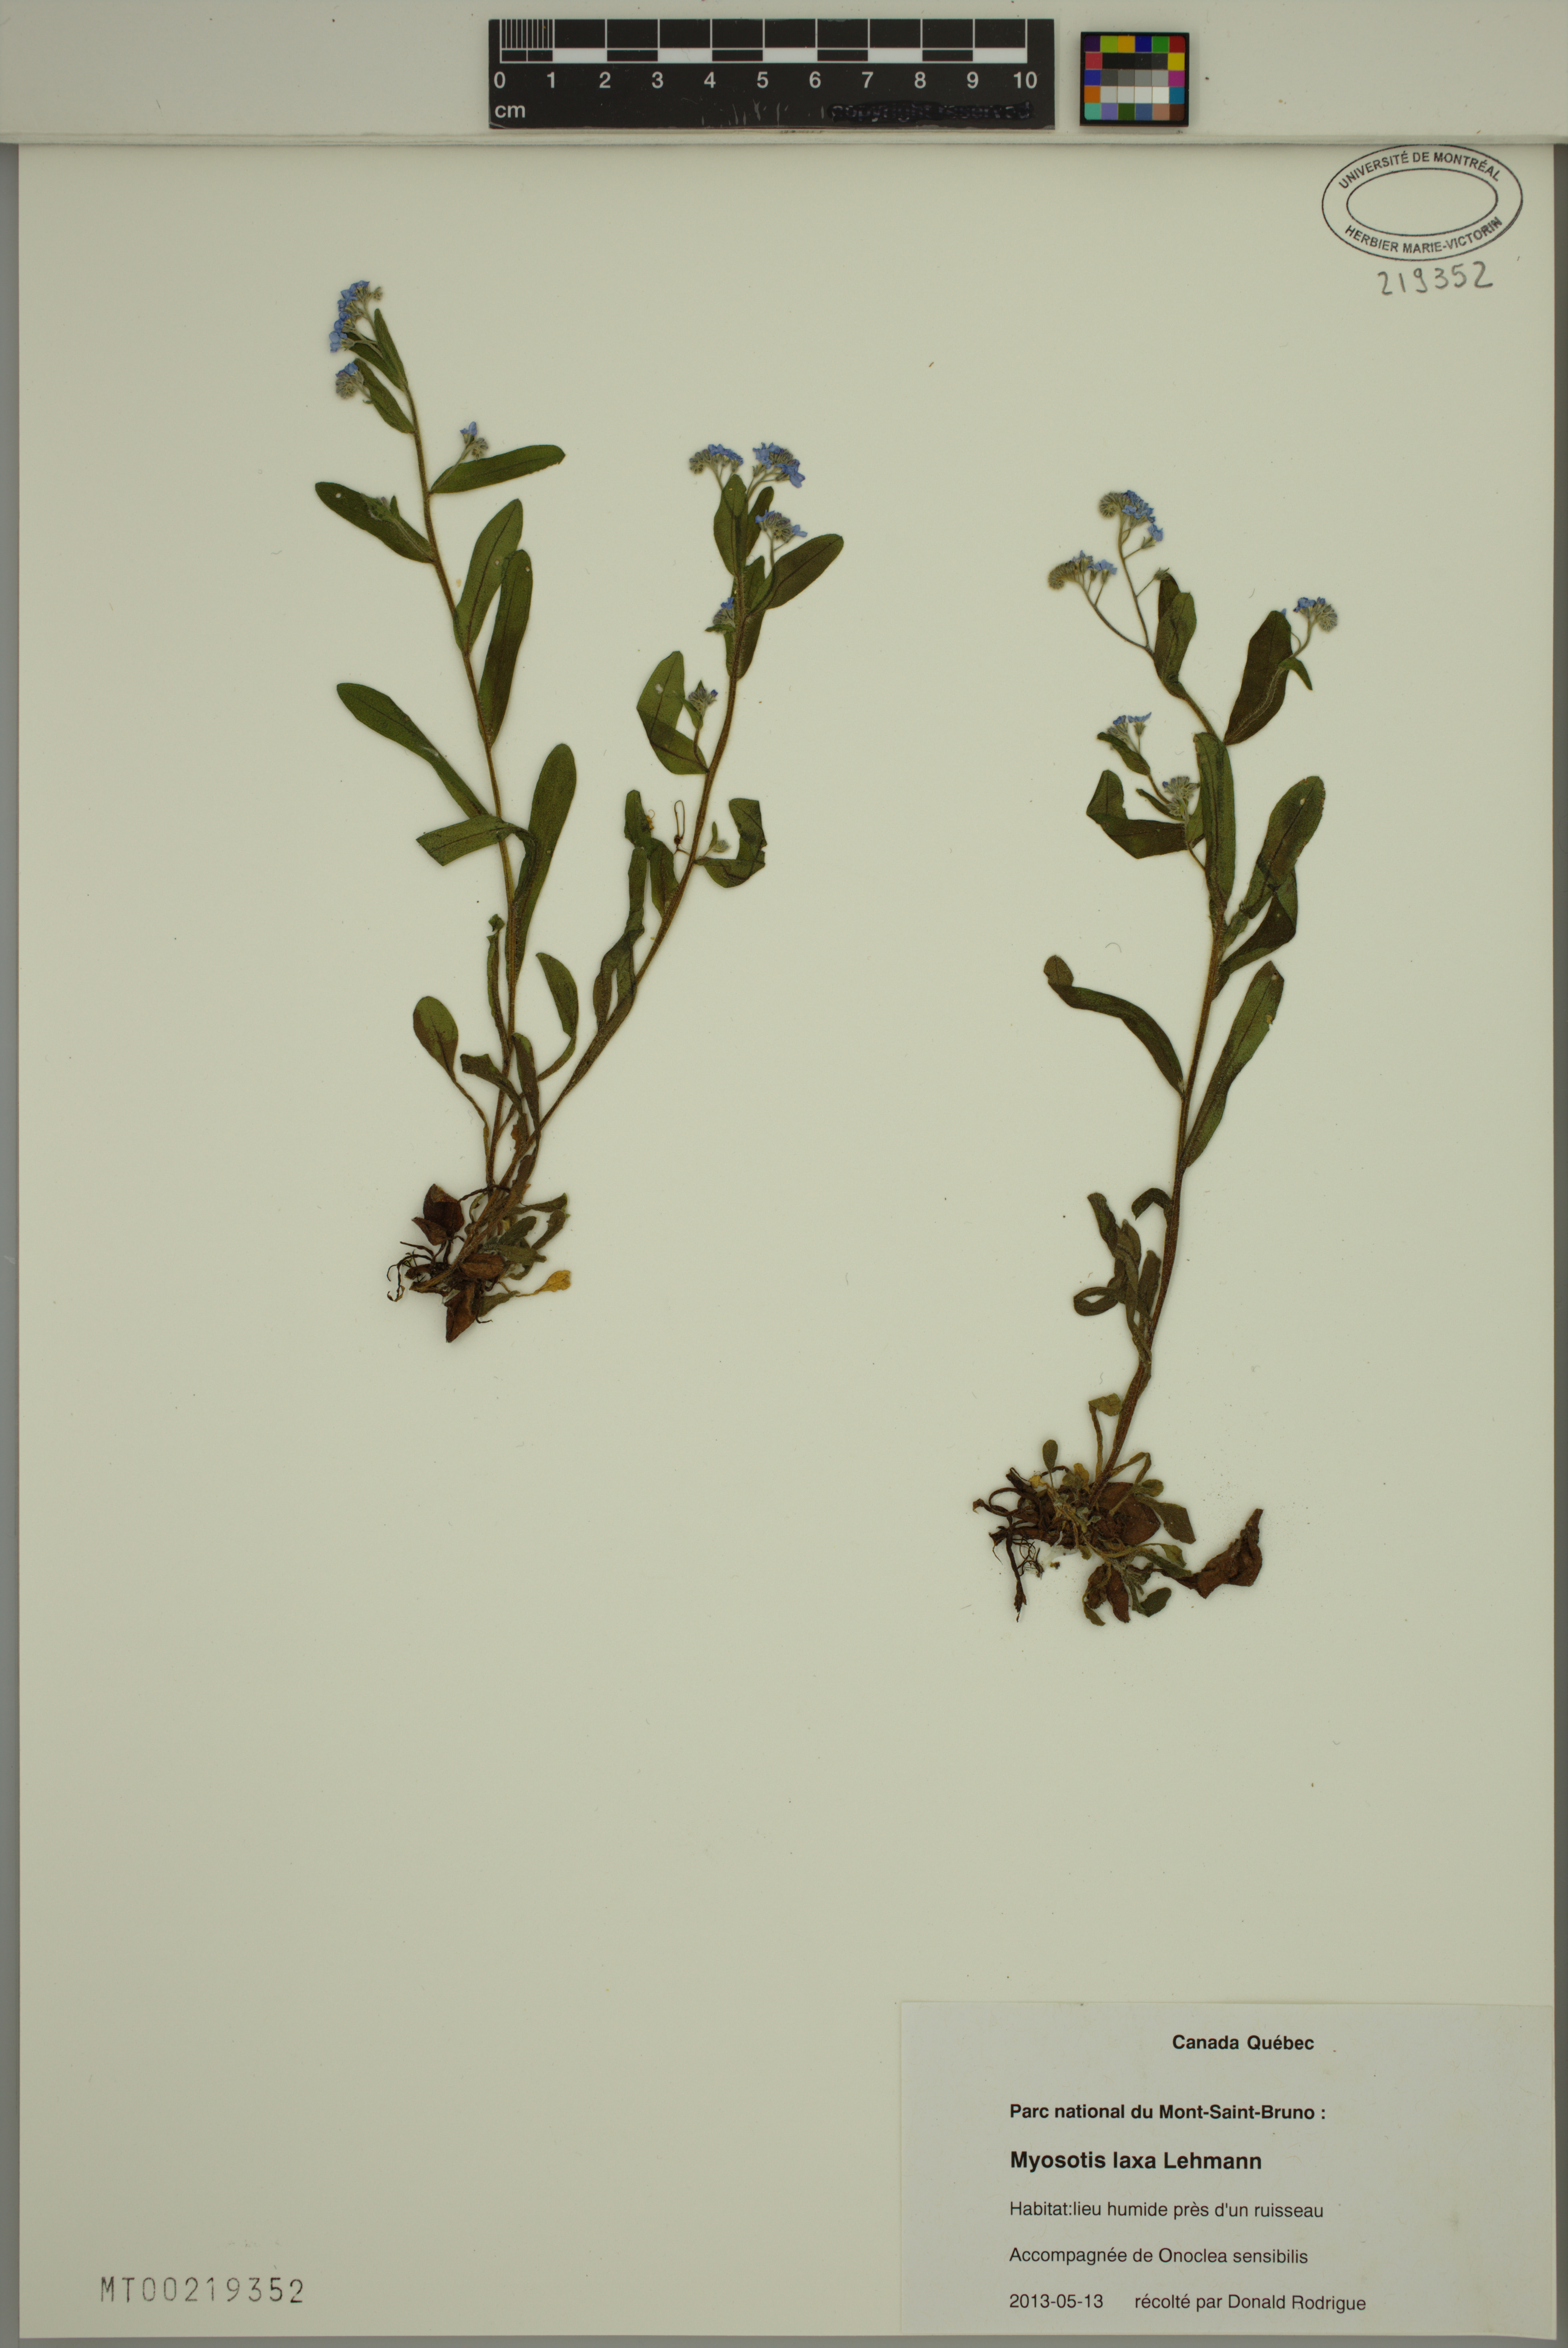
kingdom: Plantae
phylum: Tracheophyta
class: Magnoliopsida
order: Boraginales
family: Boraginaceae
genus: Myosotis
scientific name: Myosotis laxa
